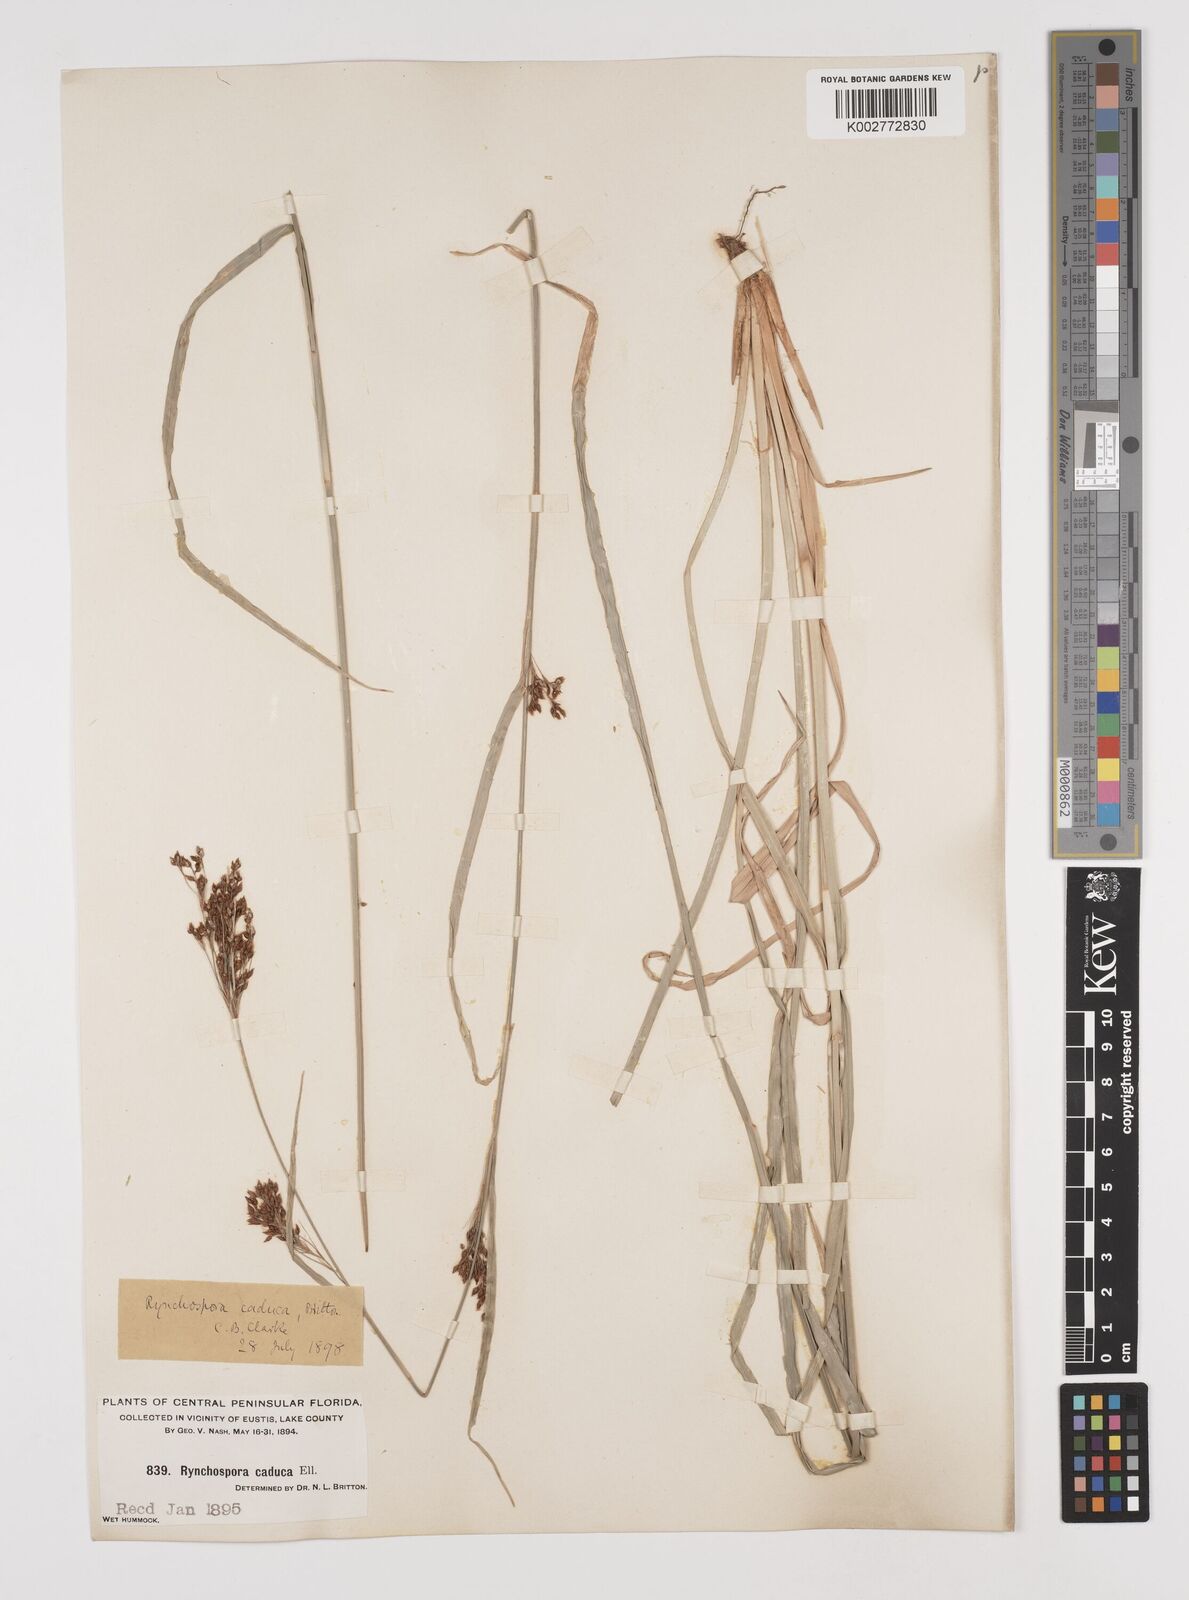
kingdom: Plantae
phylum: Tracheophyta
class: Liliopsida
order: Poales
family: Cyperaceae
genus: Rhynchospora
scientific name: Rhynchospora caduca
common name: Anglestem beaksedge
